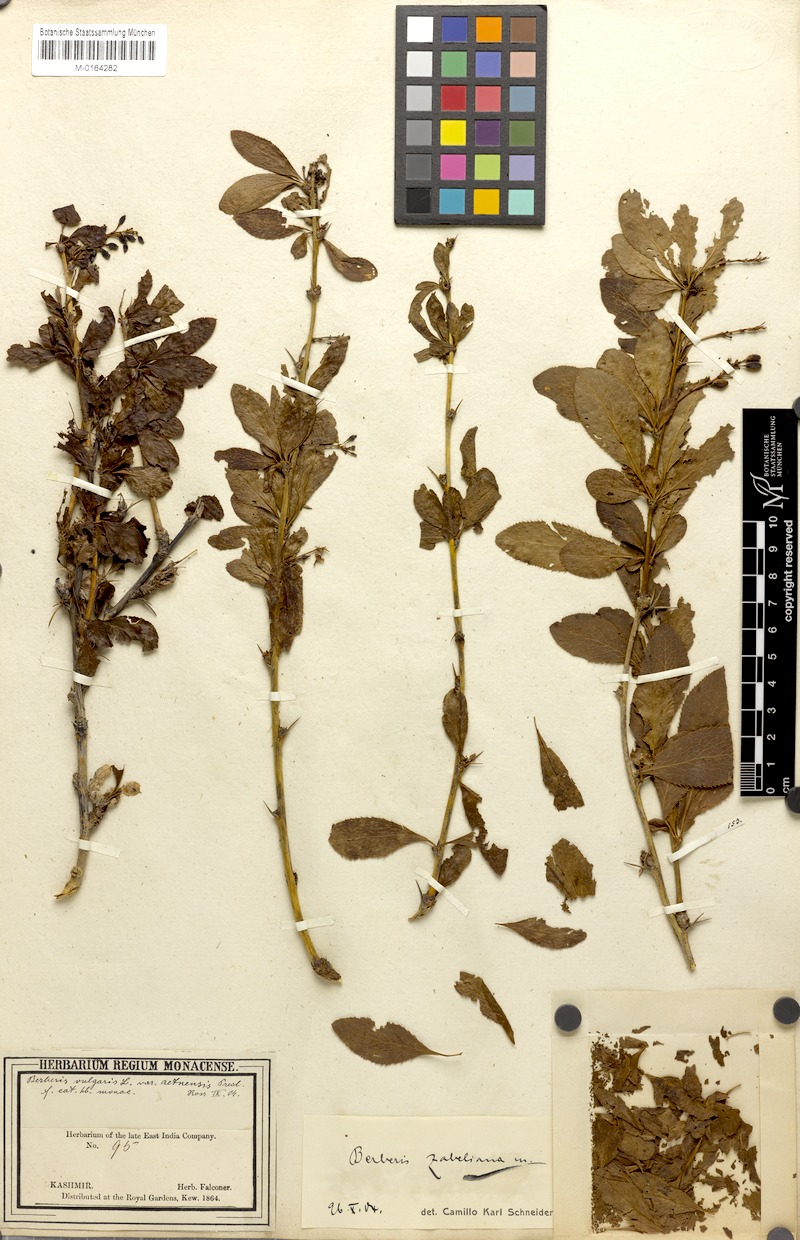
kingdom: Plantae
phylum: Tracheophyta
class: Magnoliopsida
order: Ranunculales
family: Berberidaceae
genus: Berberis
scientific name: Berberis pachyacantha
